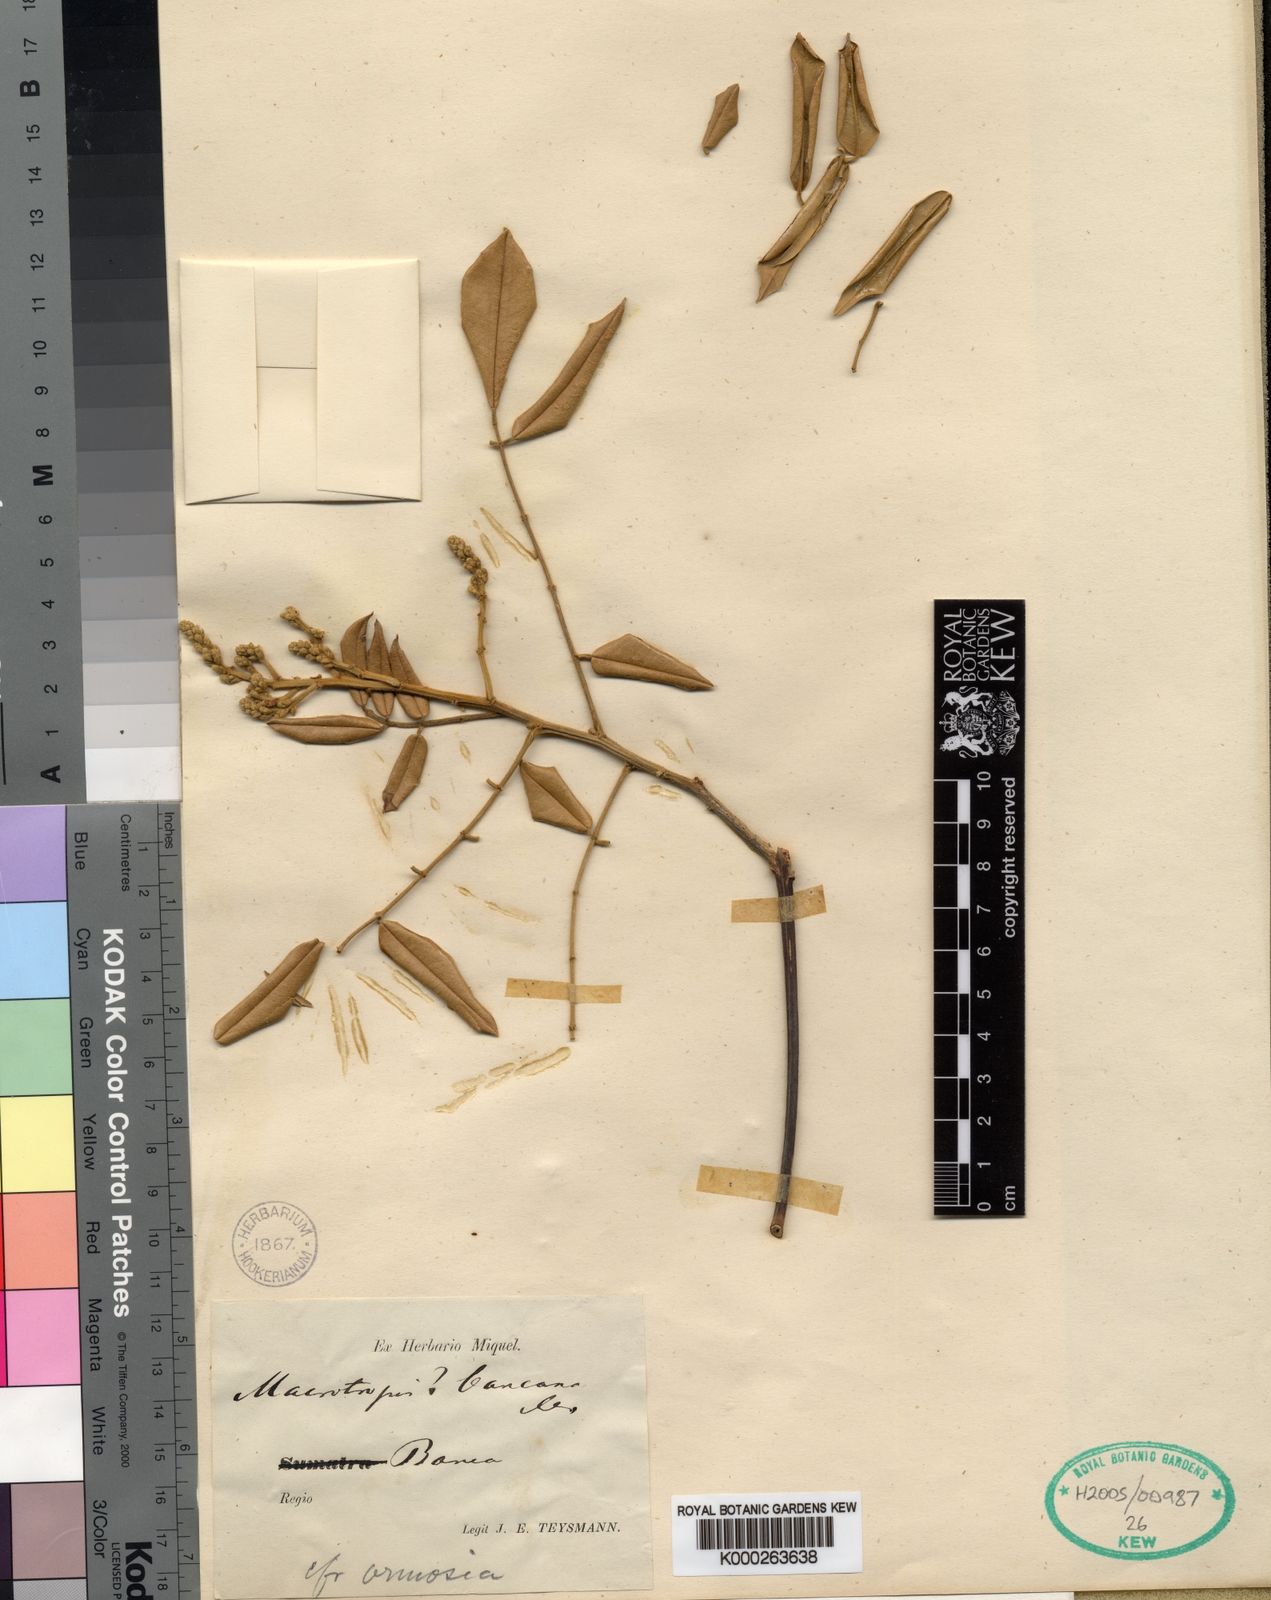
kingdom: Plantae
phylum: Tracheophyta
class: Magnoliopsida
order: Fabales
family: Fabaceae
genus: Ormosia
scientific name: Ormosia
